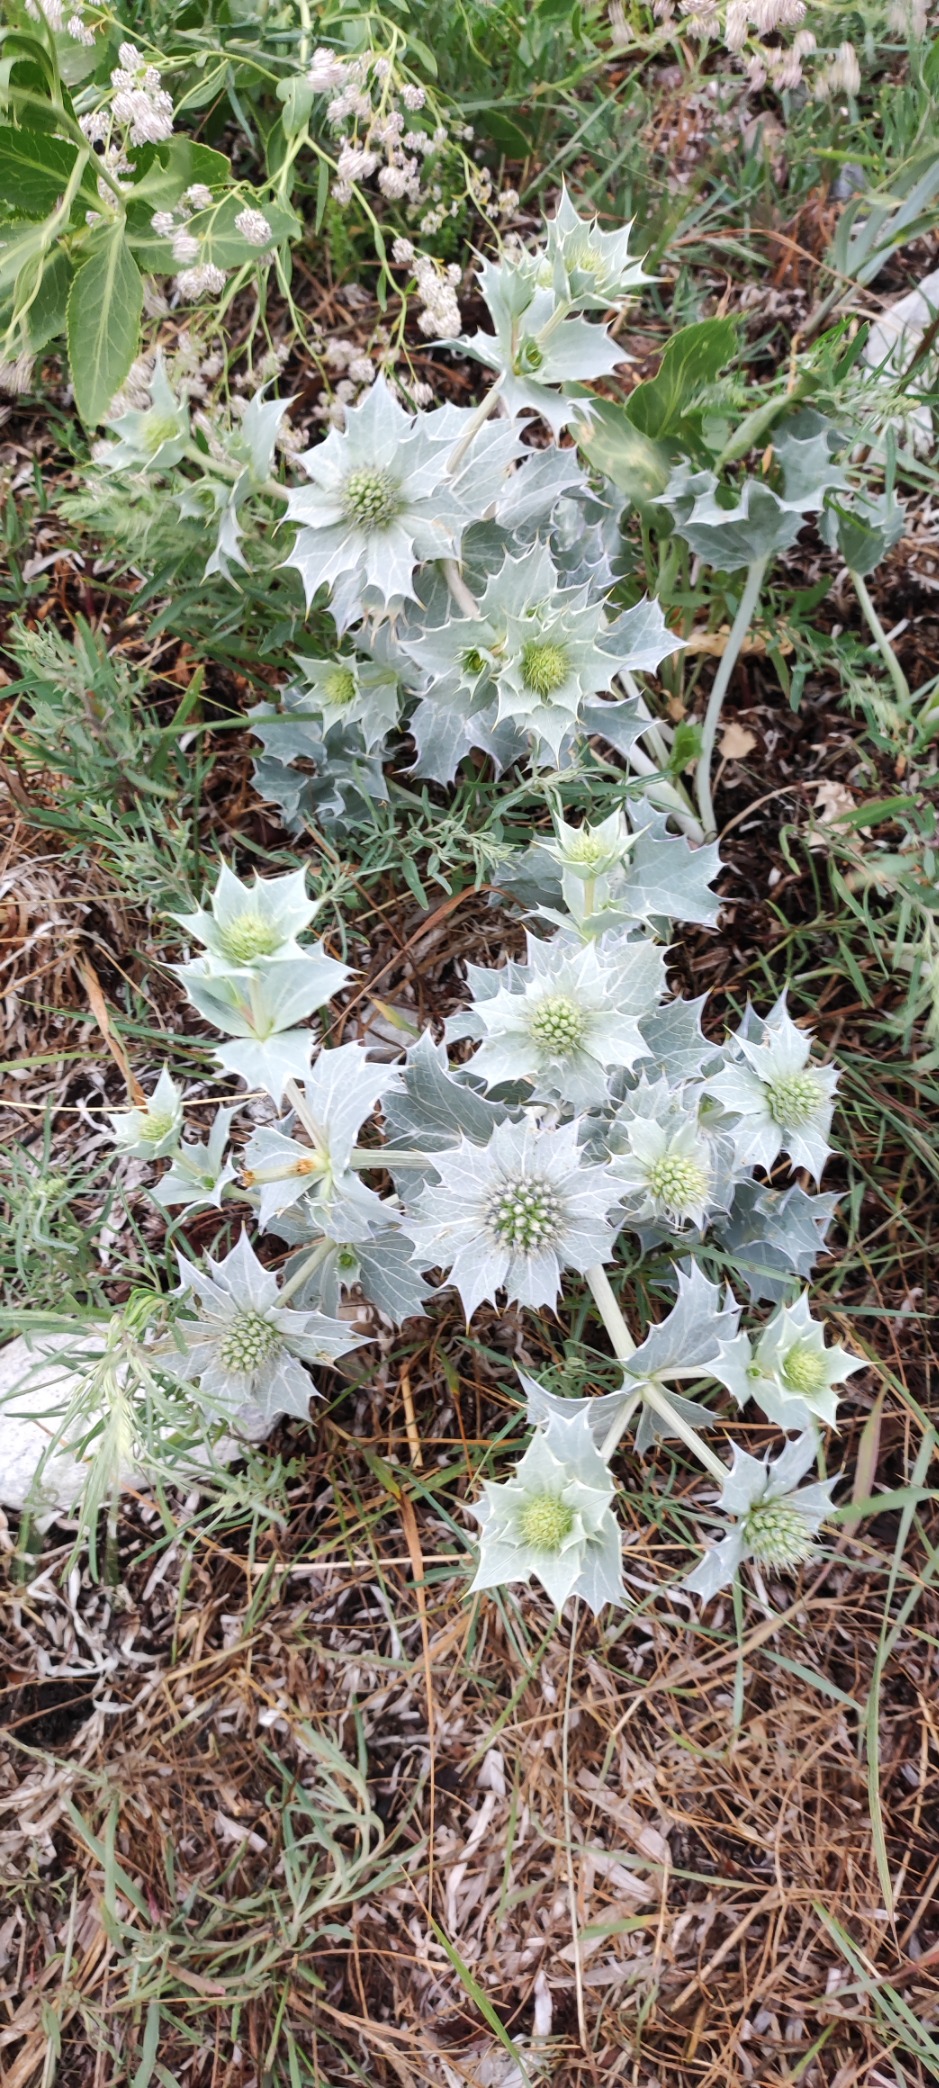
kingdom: Plantae
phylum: Tracheophyta
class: Magnoliopsida
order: Apiales
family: Apiaceae
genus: Eryngium
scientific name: Eryngium maritimum
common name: Strand-mandstro
